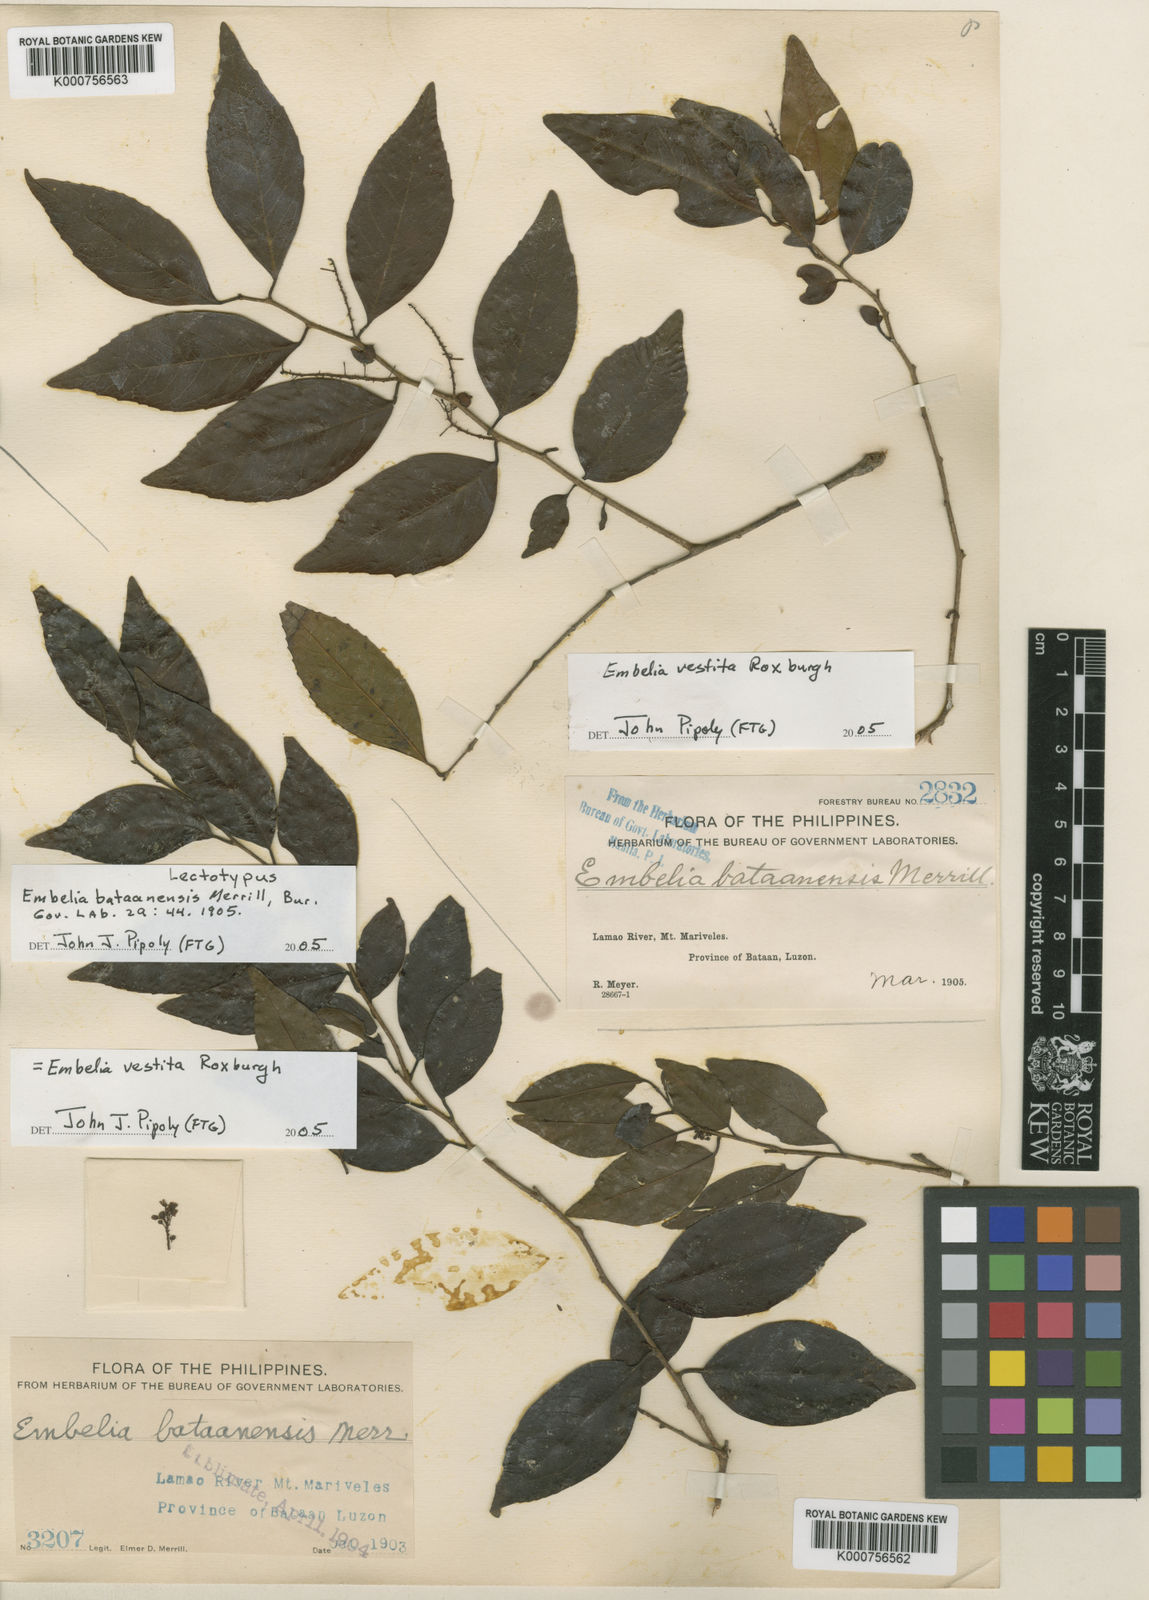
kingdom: Plantae
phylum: Tracheophyta
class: Magnoliopsida
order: Ericales
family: Primulaceae
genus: Embelia
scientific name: Embelia vestita
